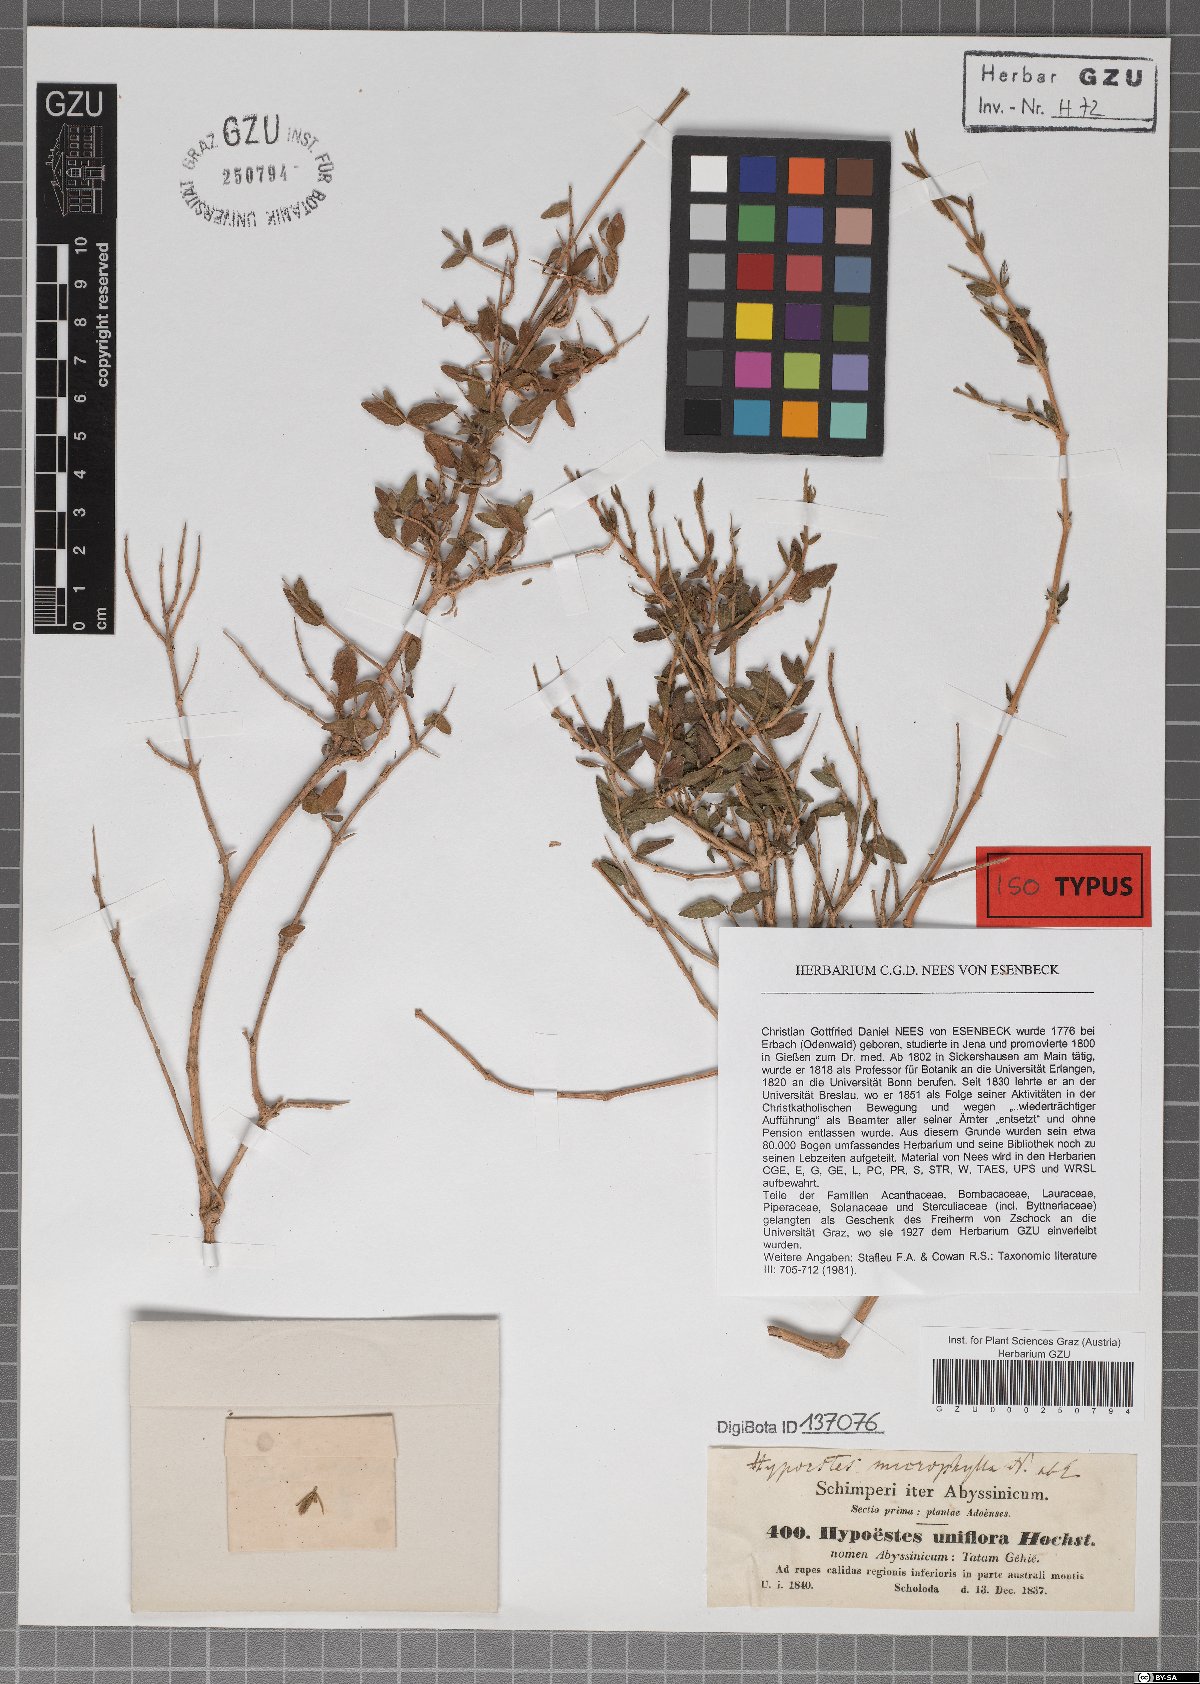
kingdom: Plantae
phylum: Tracheophyta
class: Magnoliopsida
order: Lamiales
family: Acanthaceae
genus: Hypoestes
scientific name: Hypoestes triflora
